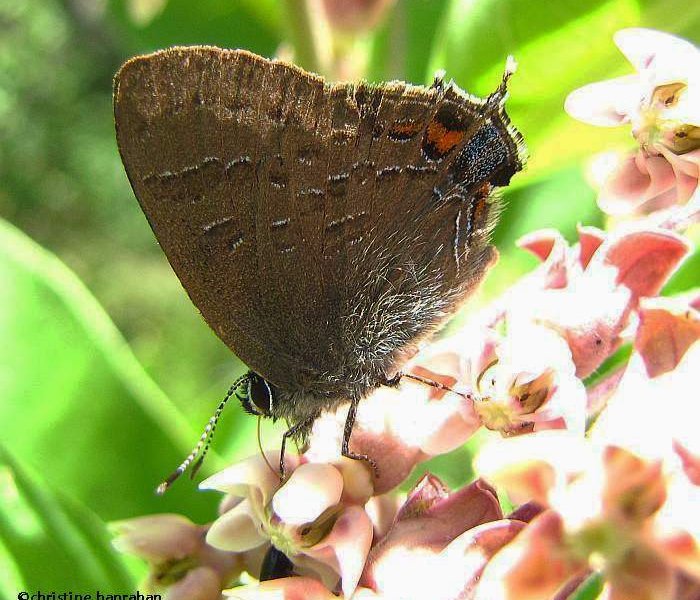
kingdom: Animalia
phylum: Arthropoda
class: Insecta
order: Lepidoptera
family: Lycaenidae
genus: Satyrium
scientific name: Satyrium calanus
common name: Banded Hairstreak
